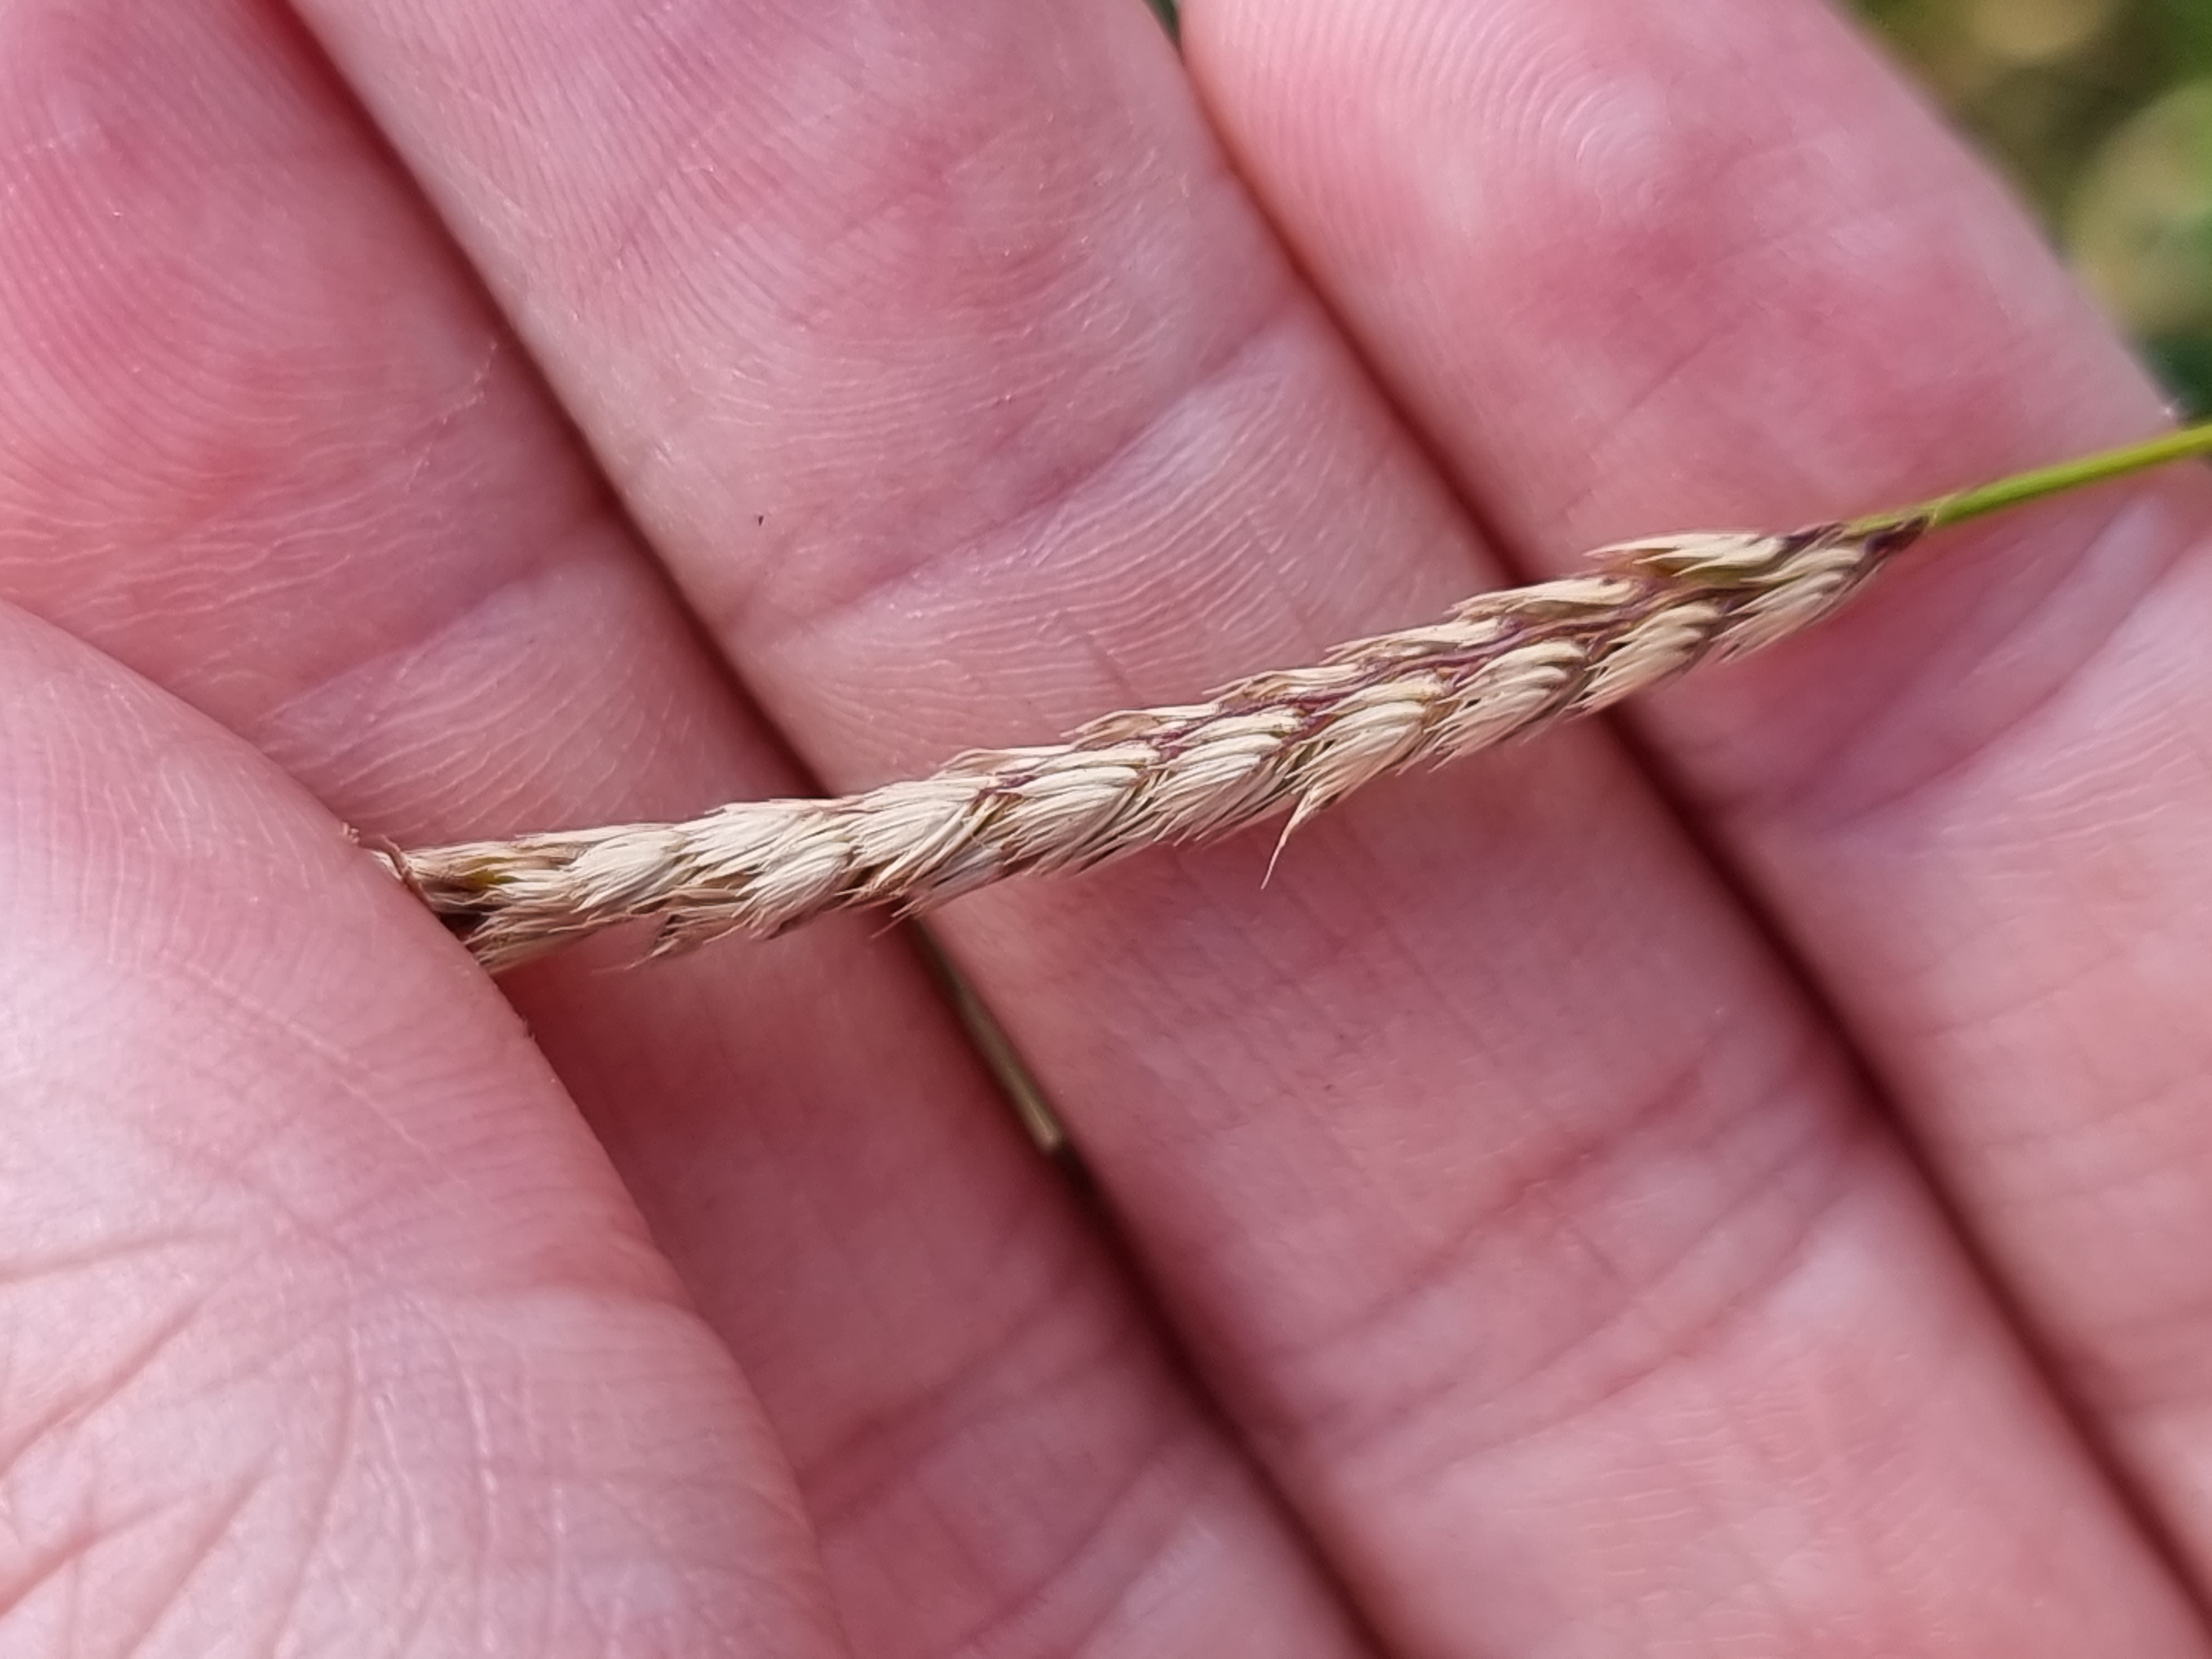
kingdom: Plantae
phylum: Tracheophyta
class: Liliopsida
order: Poales
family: Poaceae
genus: Cynosurus
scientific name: Cynosurus cristatus
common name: Kamgræs
